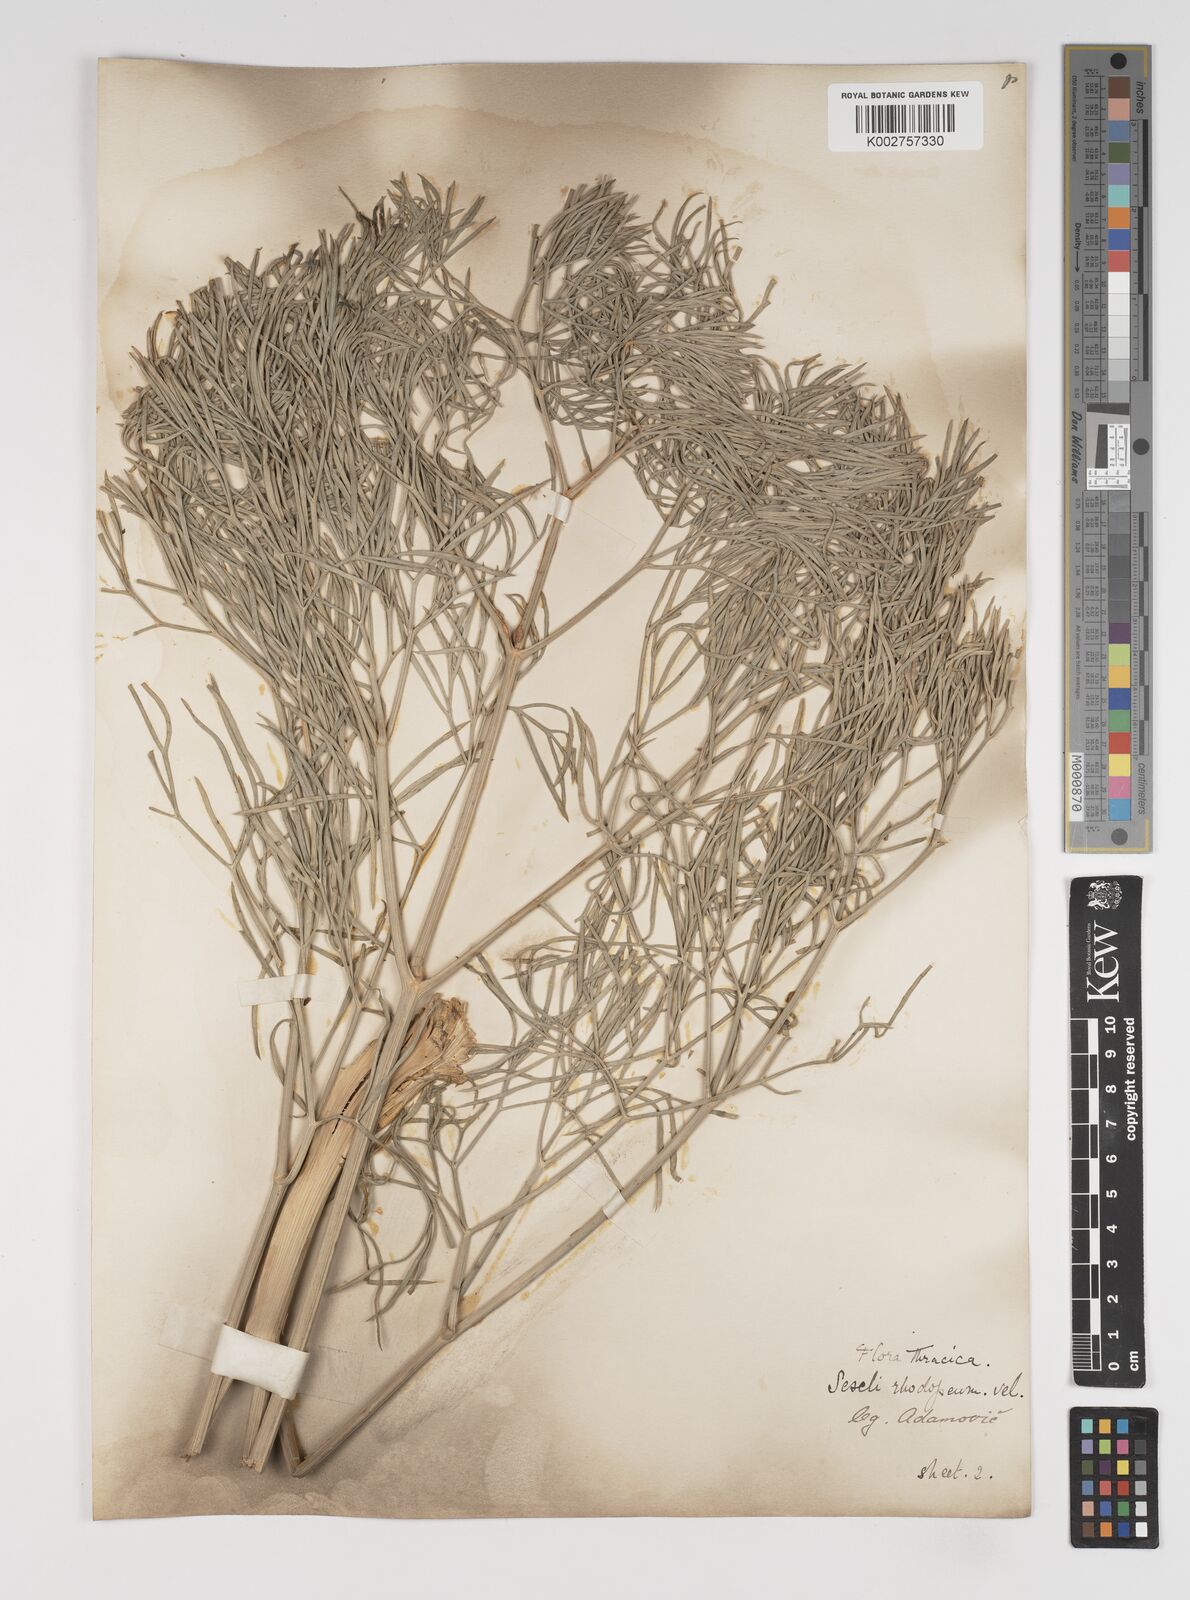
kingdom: Plantae
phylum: Tracheophyta
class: Magnoliopsida
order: Apiales
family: Apiaceae
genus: Seseli
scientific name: Seseli rhodopeum
